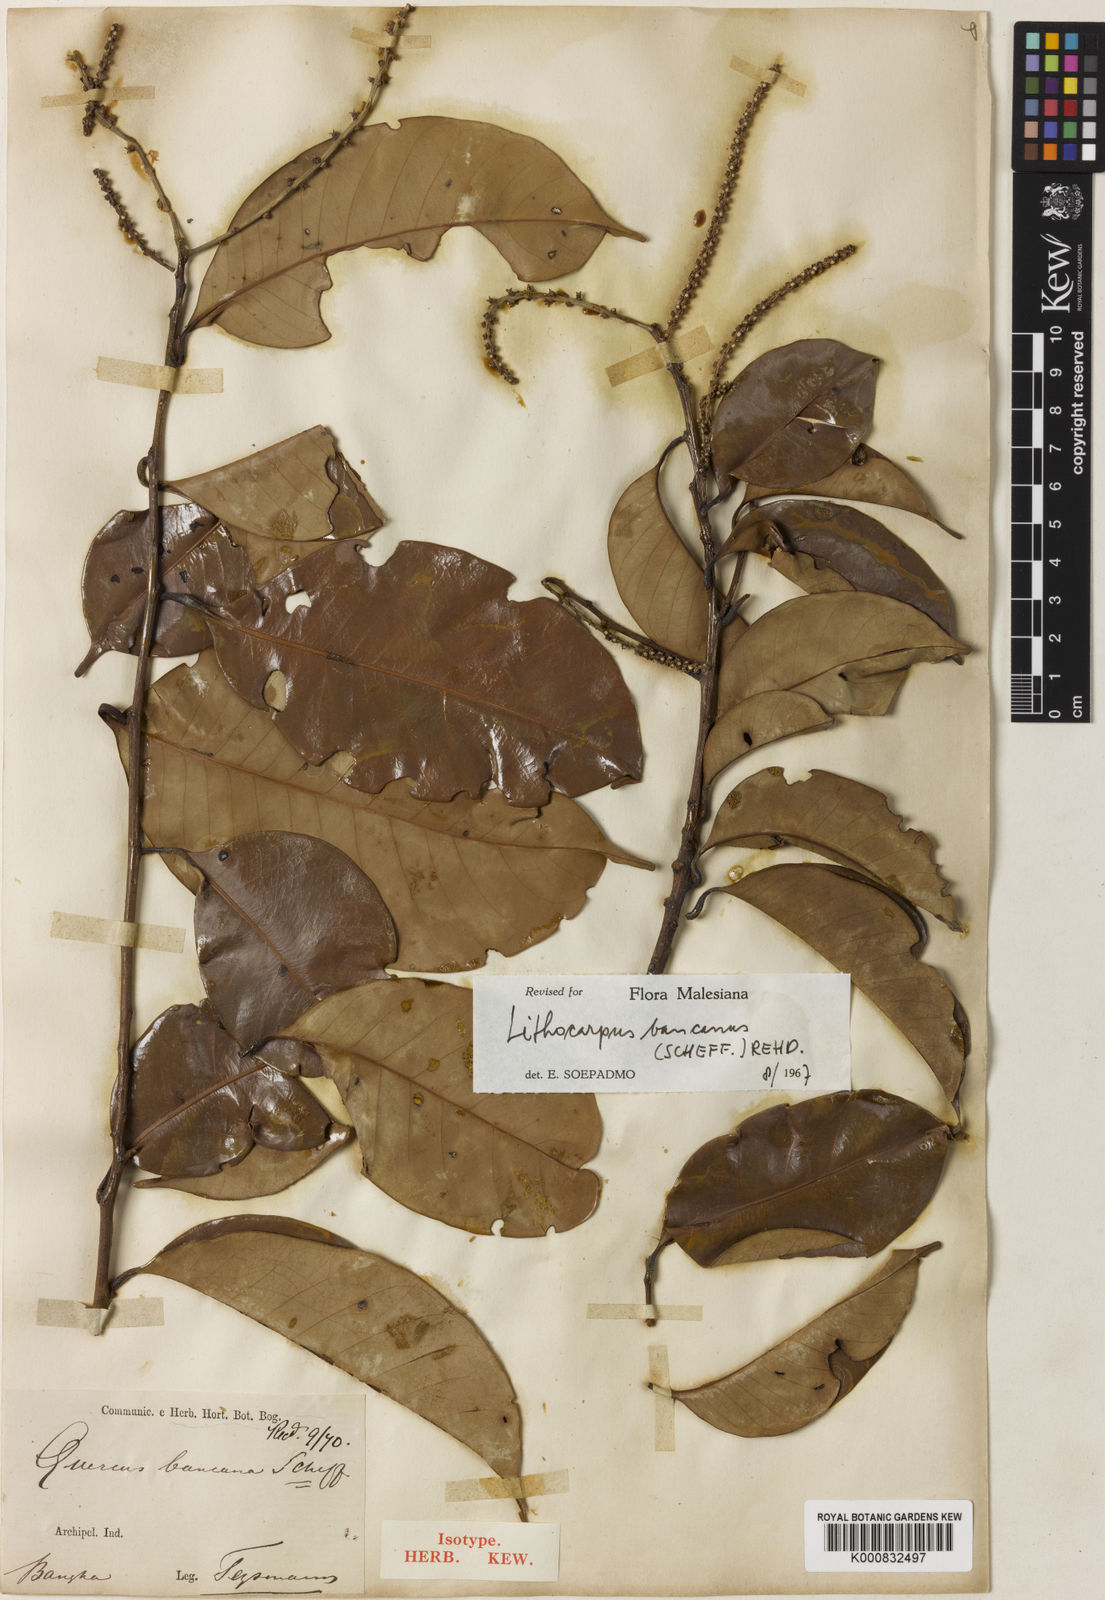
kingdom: Plantae
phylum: Tracheophyta
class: Magnoliopsida
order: Fagales
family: Fagaceae
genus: Lithocarpus
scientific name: Lithocarpus bancanus
